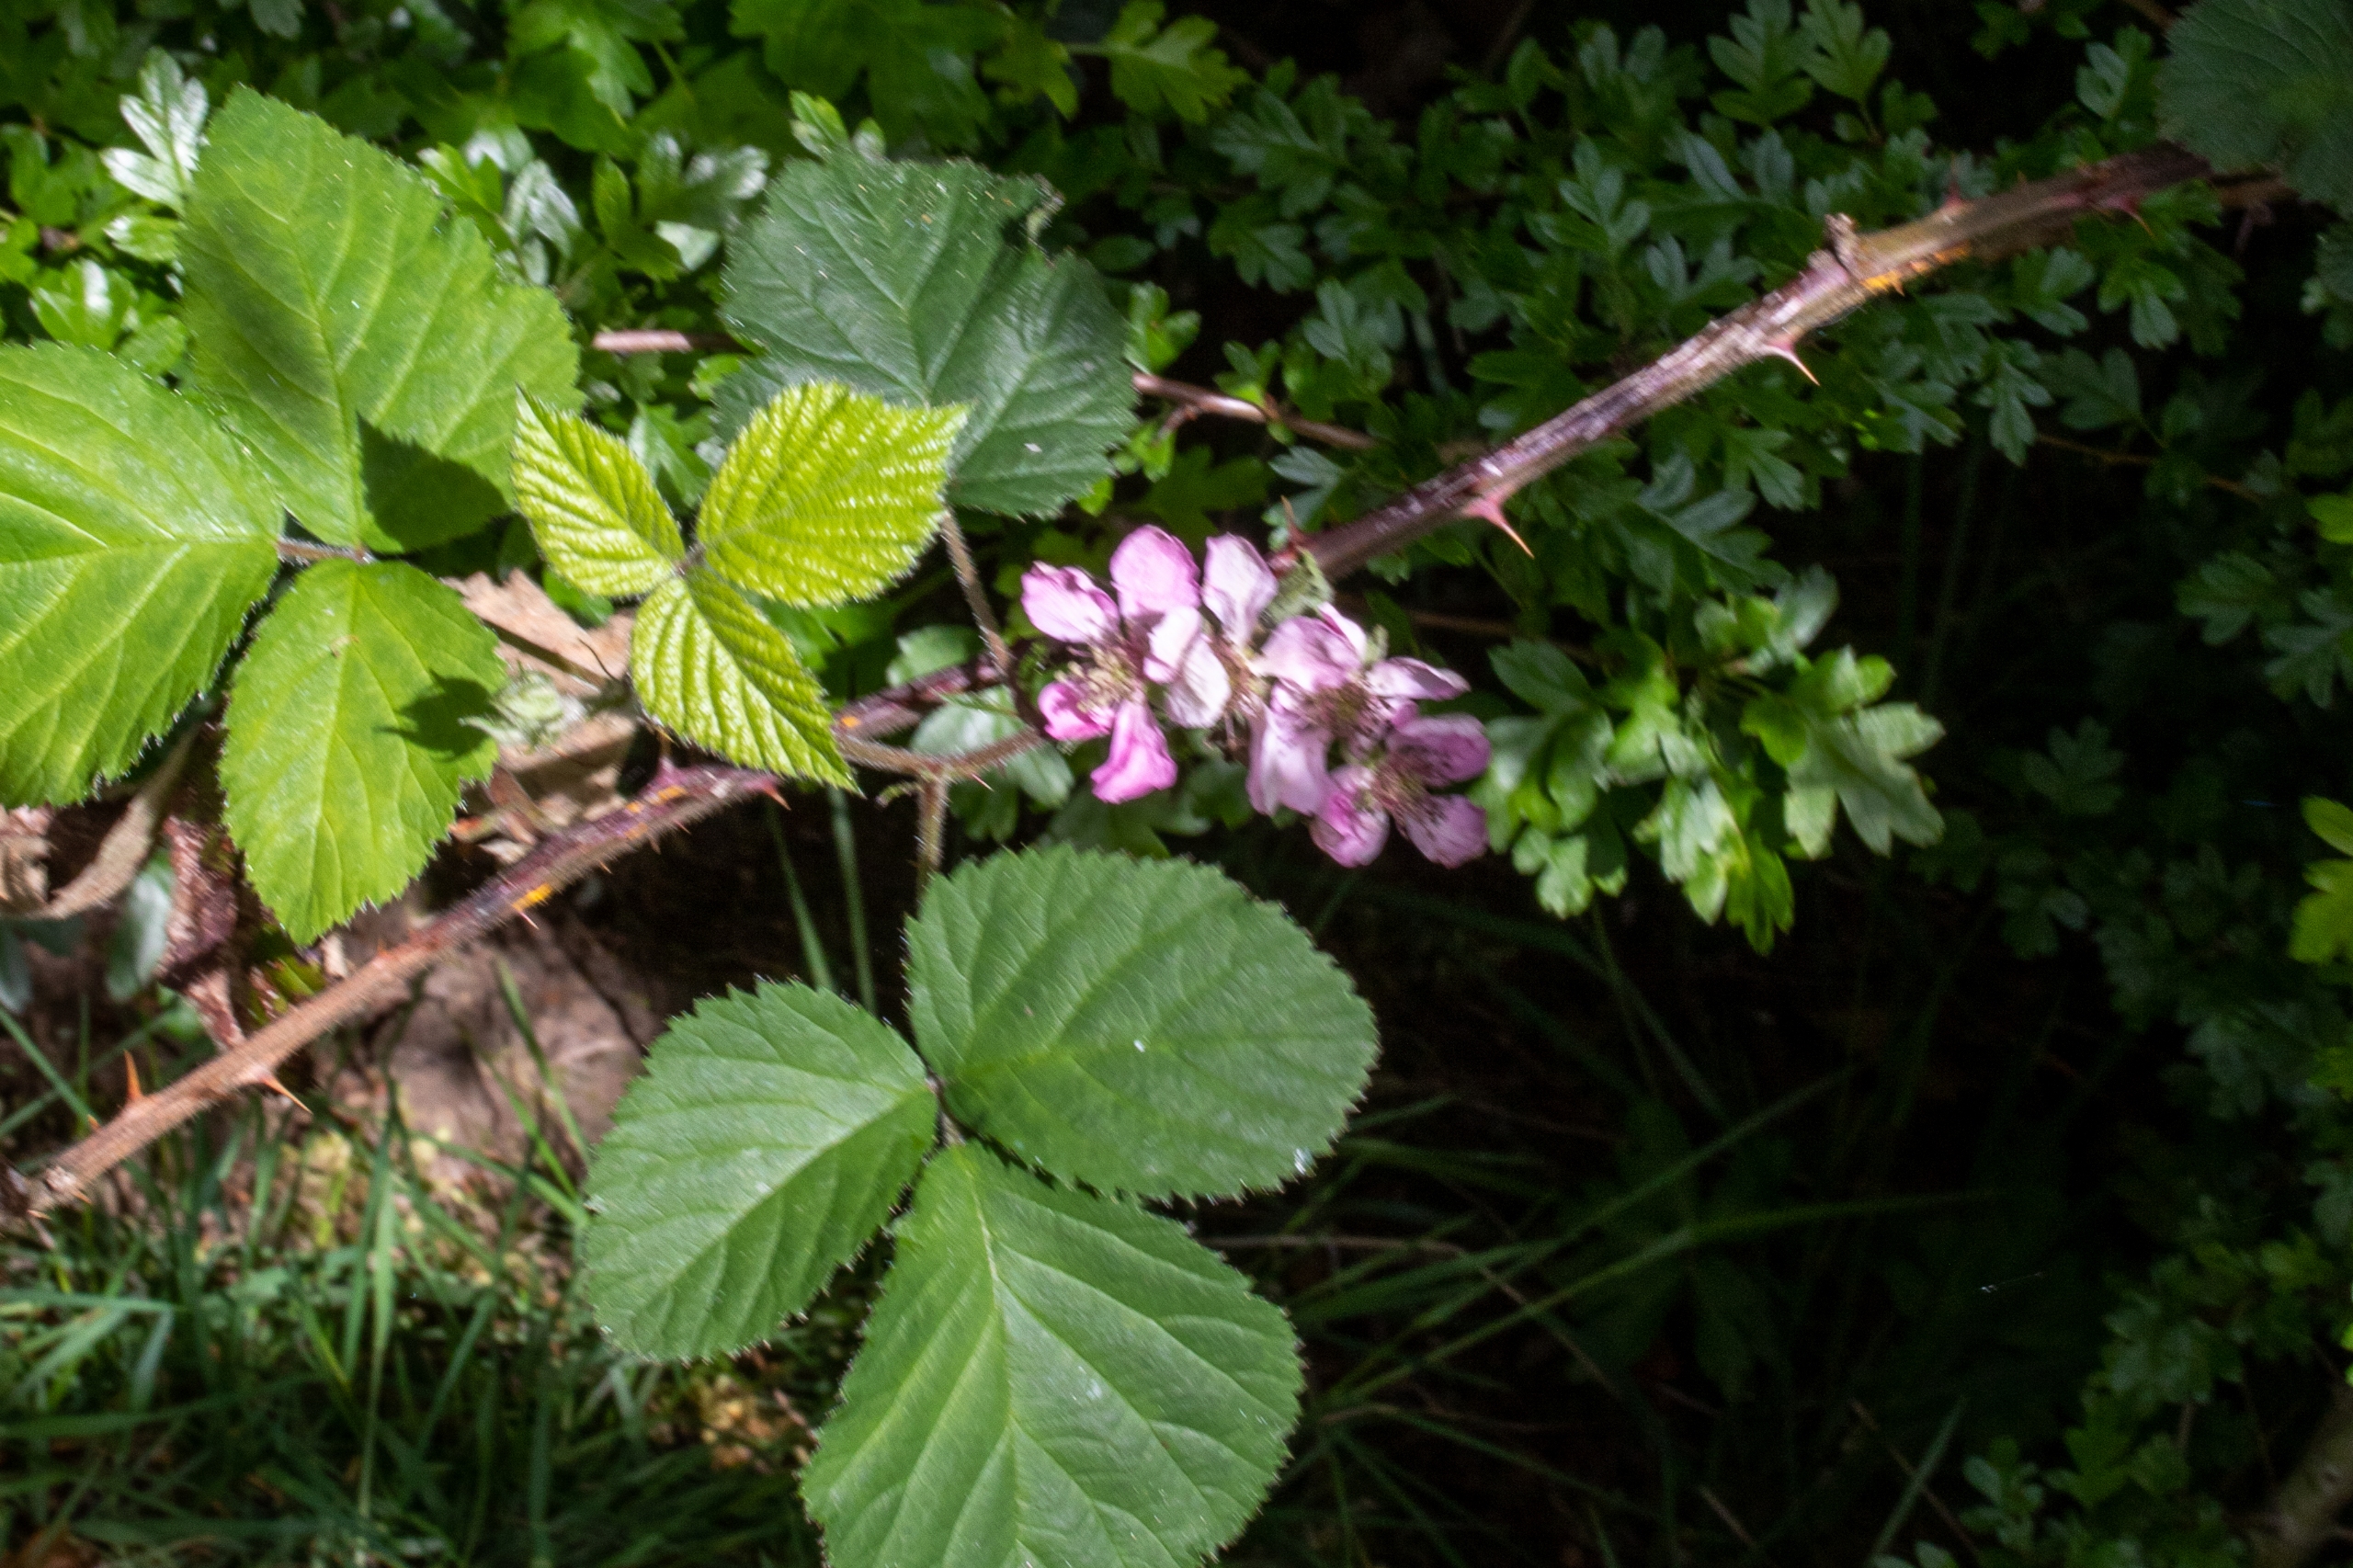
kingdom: Plantae
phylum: Tracheophyta
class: Magnoliopsida
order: Rosales
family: Rosaceae
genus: Rubus
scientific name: Rubus vestitus
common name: Rundbladet brombær
